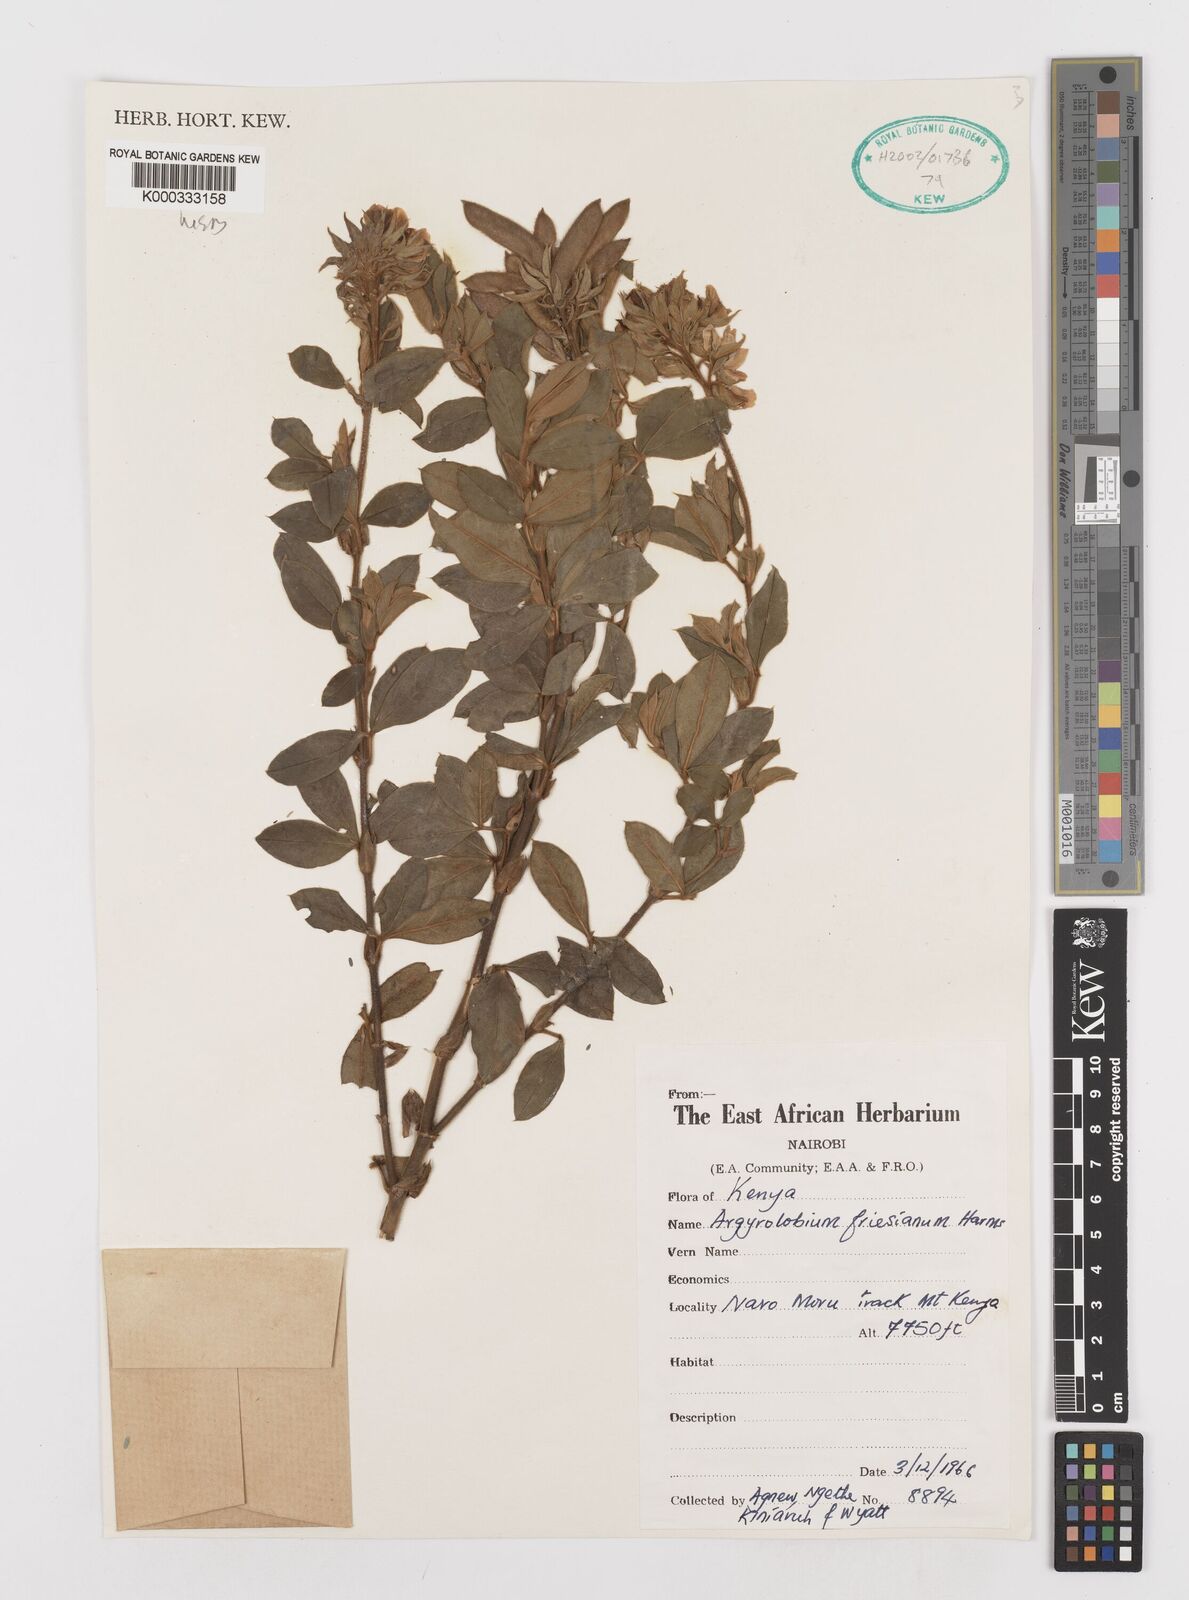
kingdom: Plantae
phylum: Tracheophyta
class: Magnoliopsida
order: Fabales
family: Fabaceae
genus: Argyrolobium
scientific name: Argyrolobium friesianum
